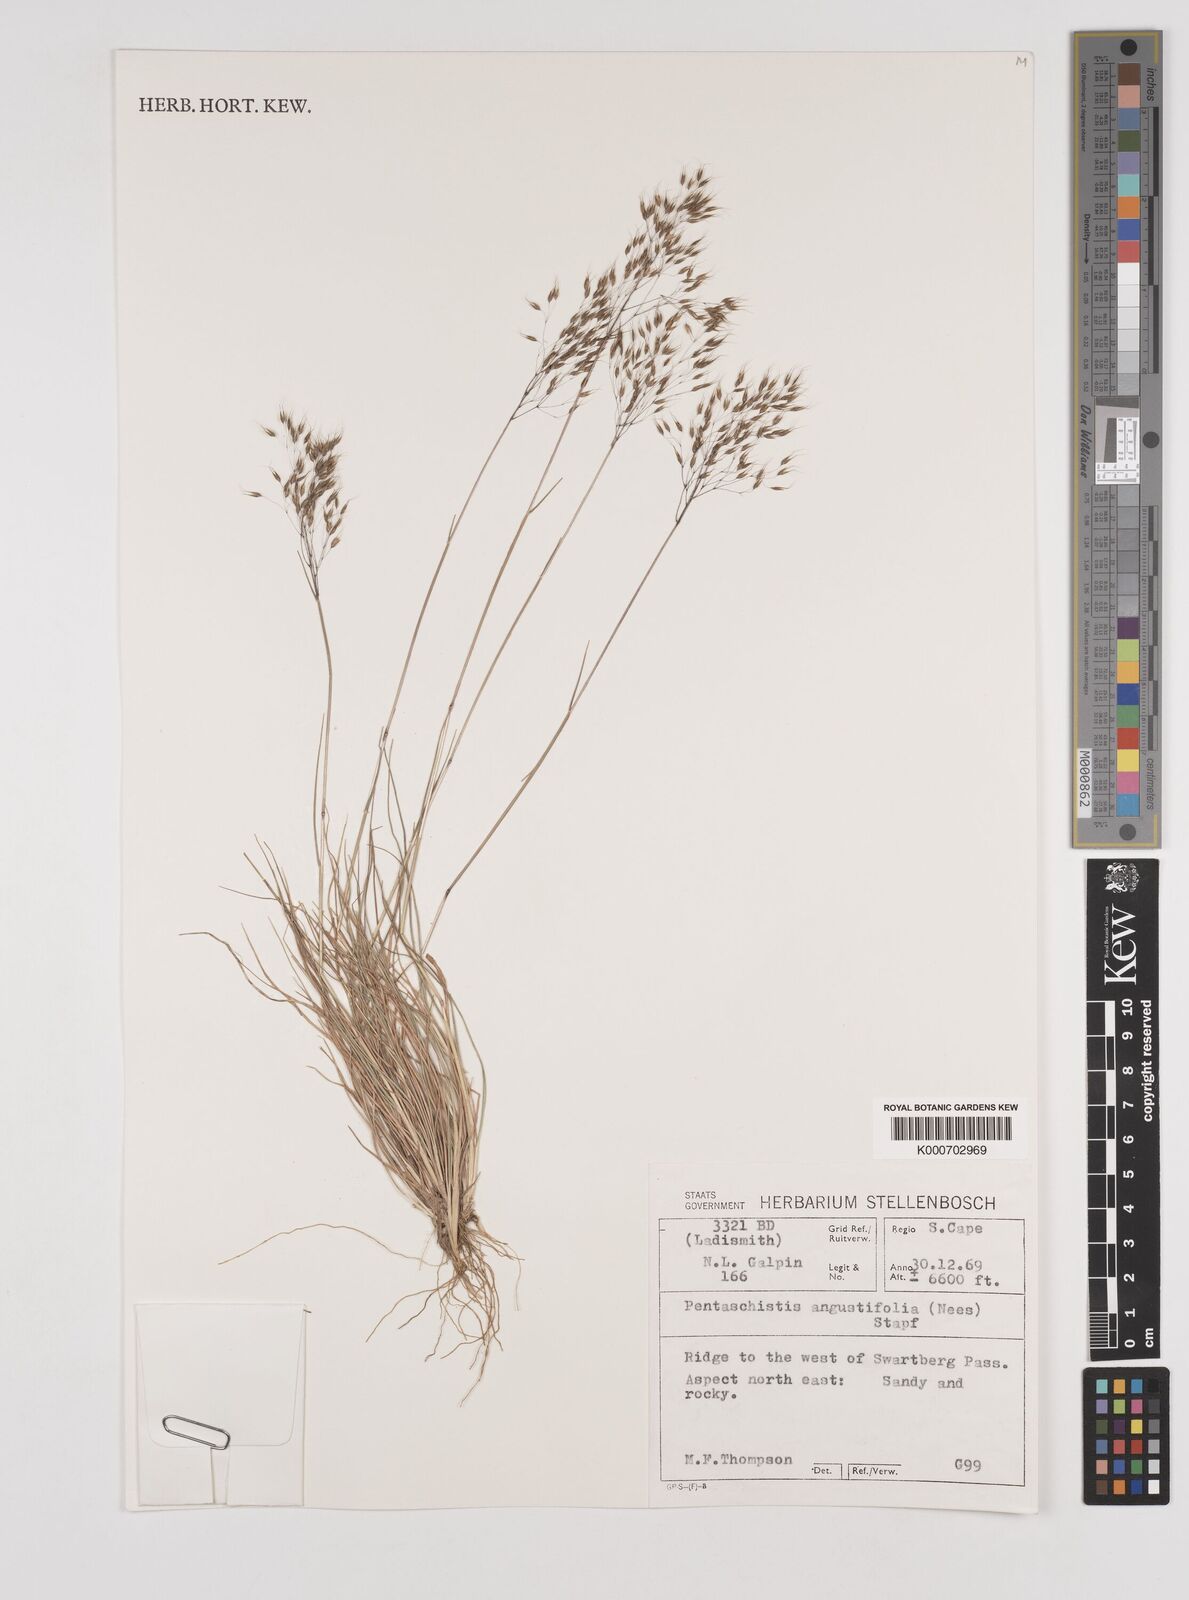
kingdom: Plantae
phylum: Tracheophyta
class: Liliopsida
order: Poales
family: Poaceae
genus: Pentameris
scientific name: Pentameris pallida
